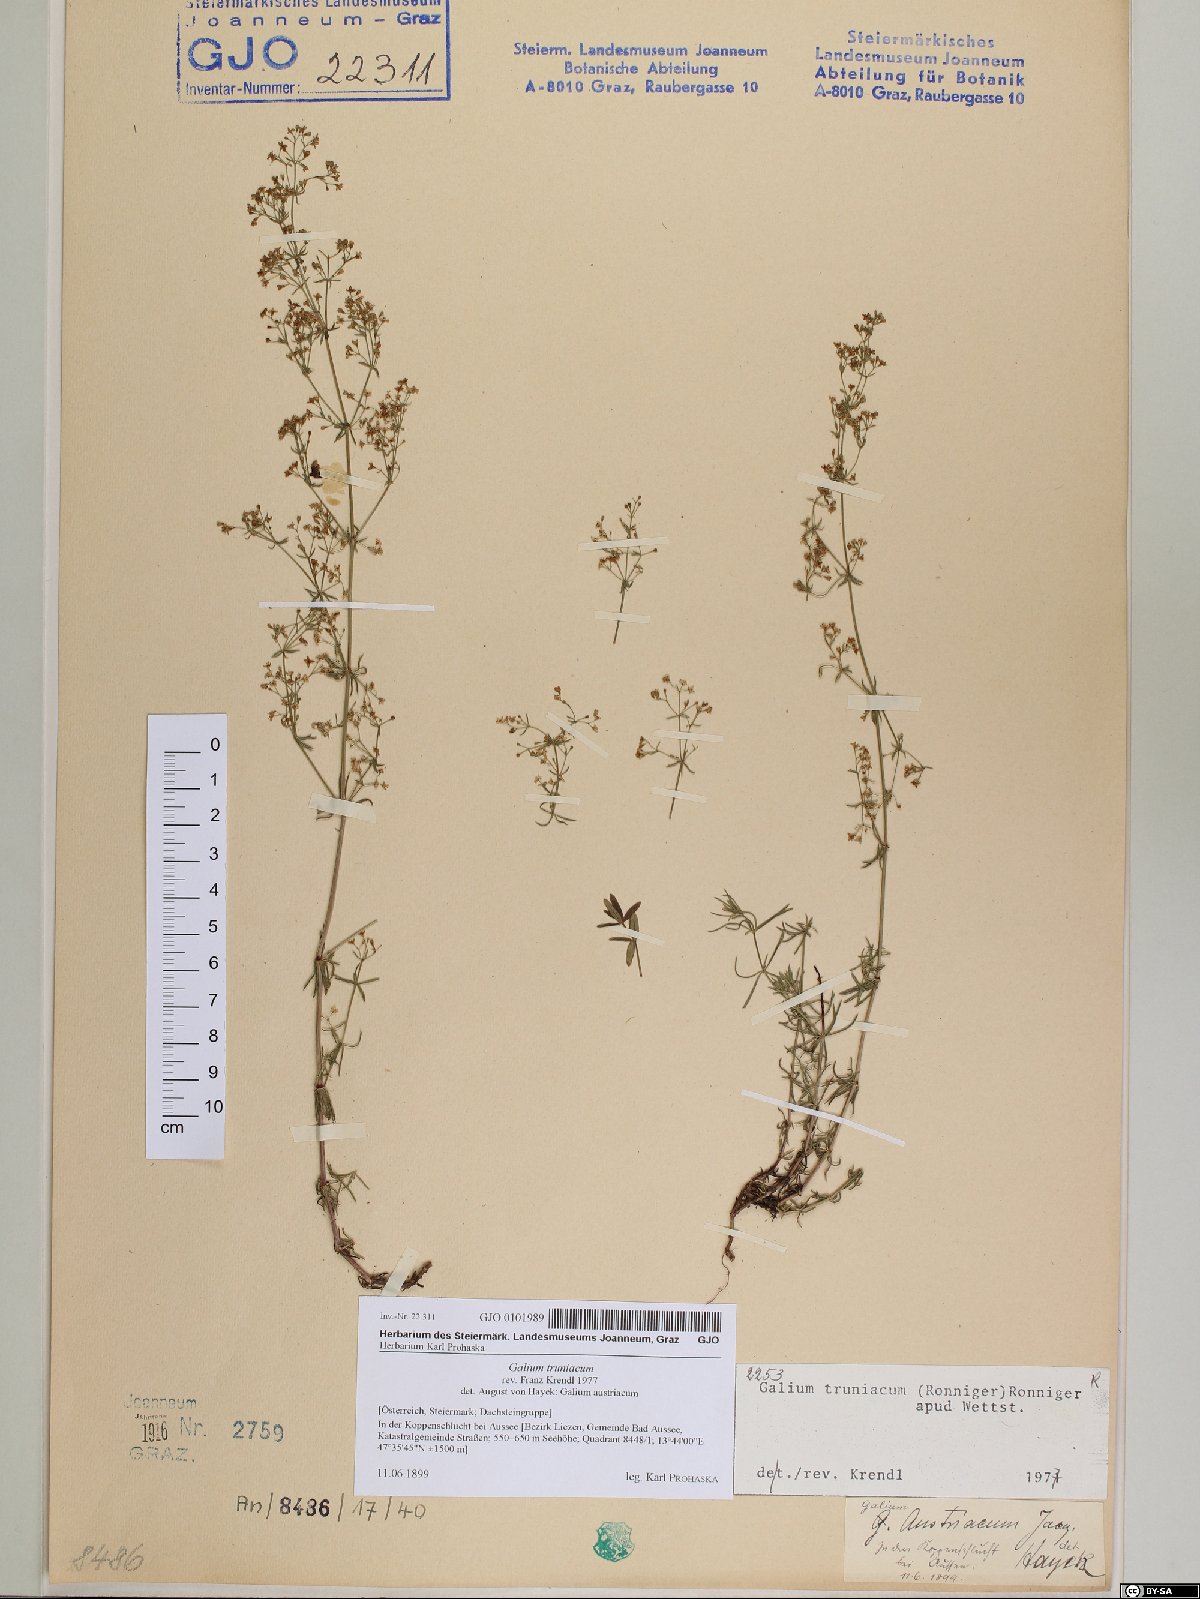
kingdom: Plantae
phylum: Tracheophyta
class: Magnoliopsida
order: Gentianales
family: Rubiaceae
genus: Galium
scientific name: Galium truniacum
